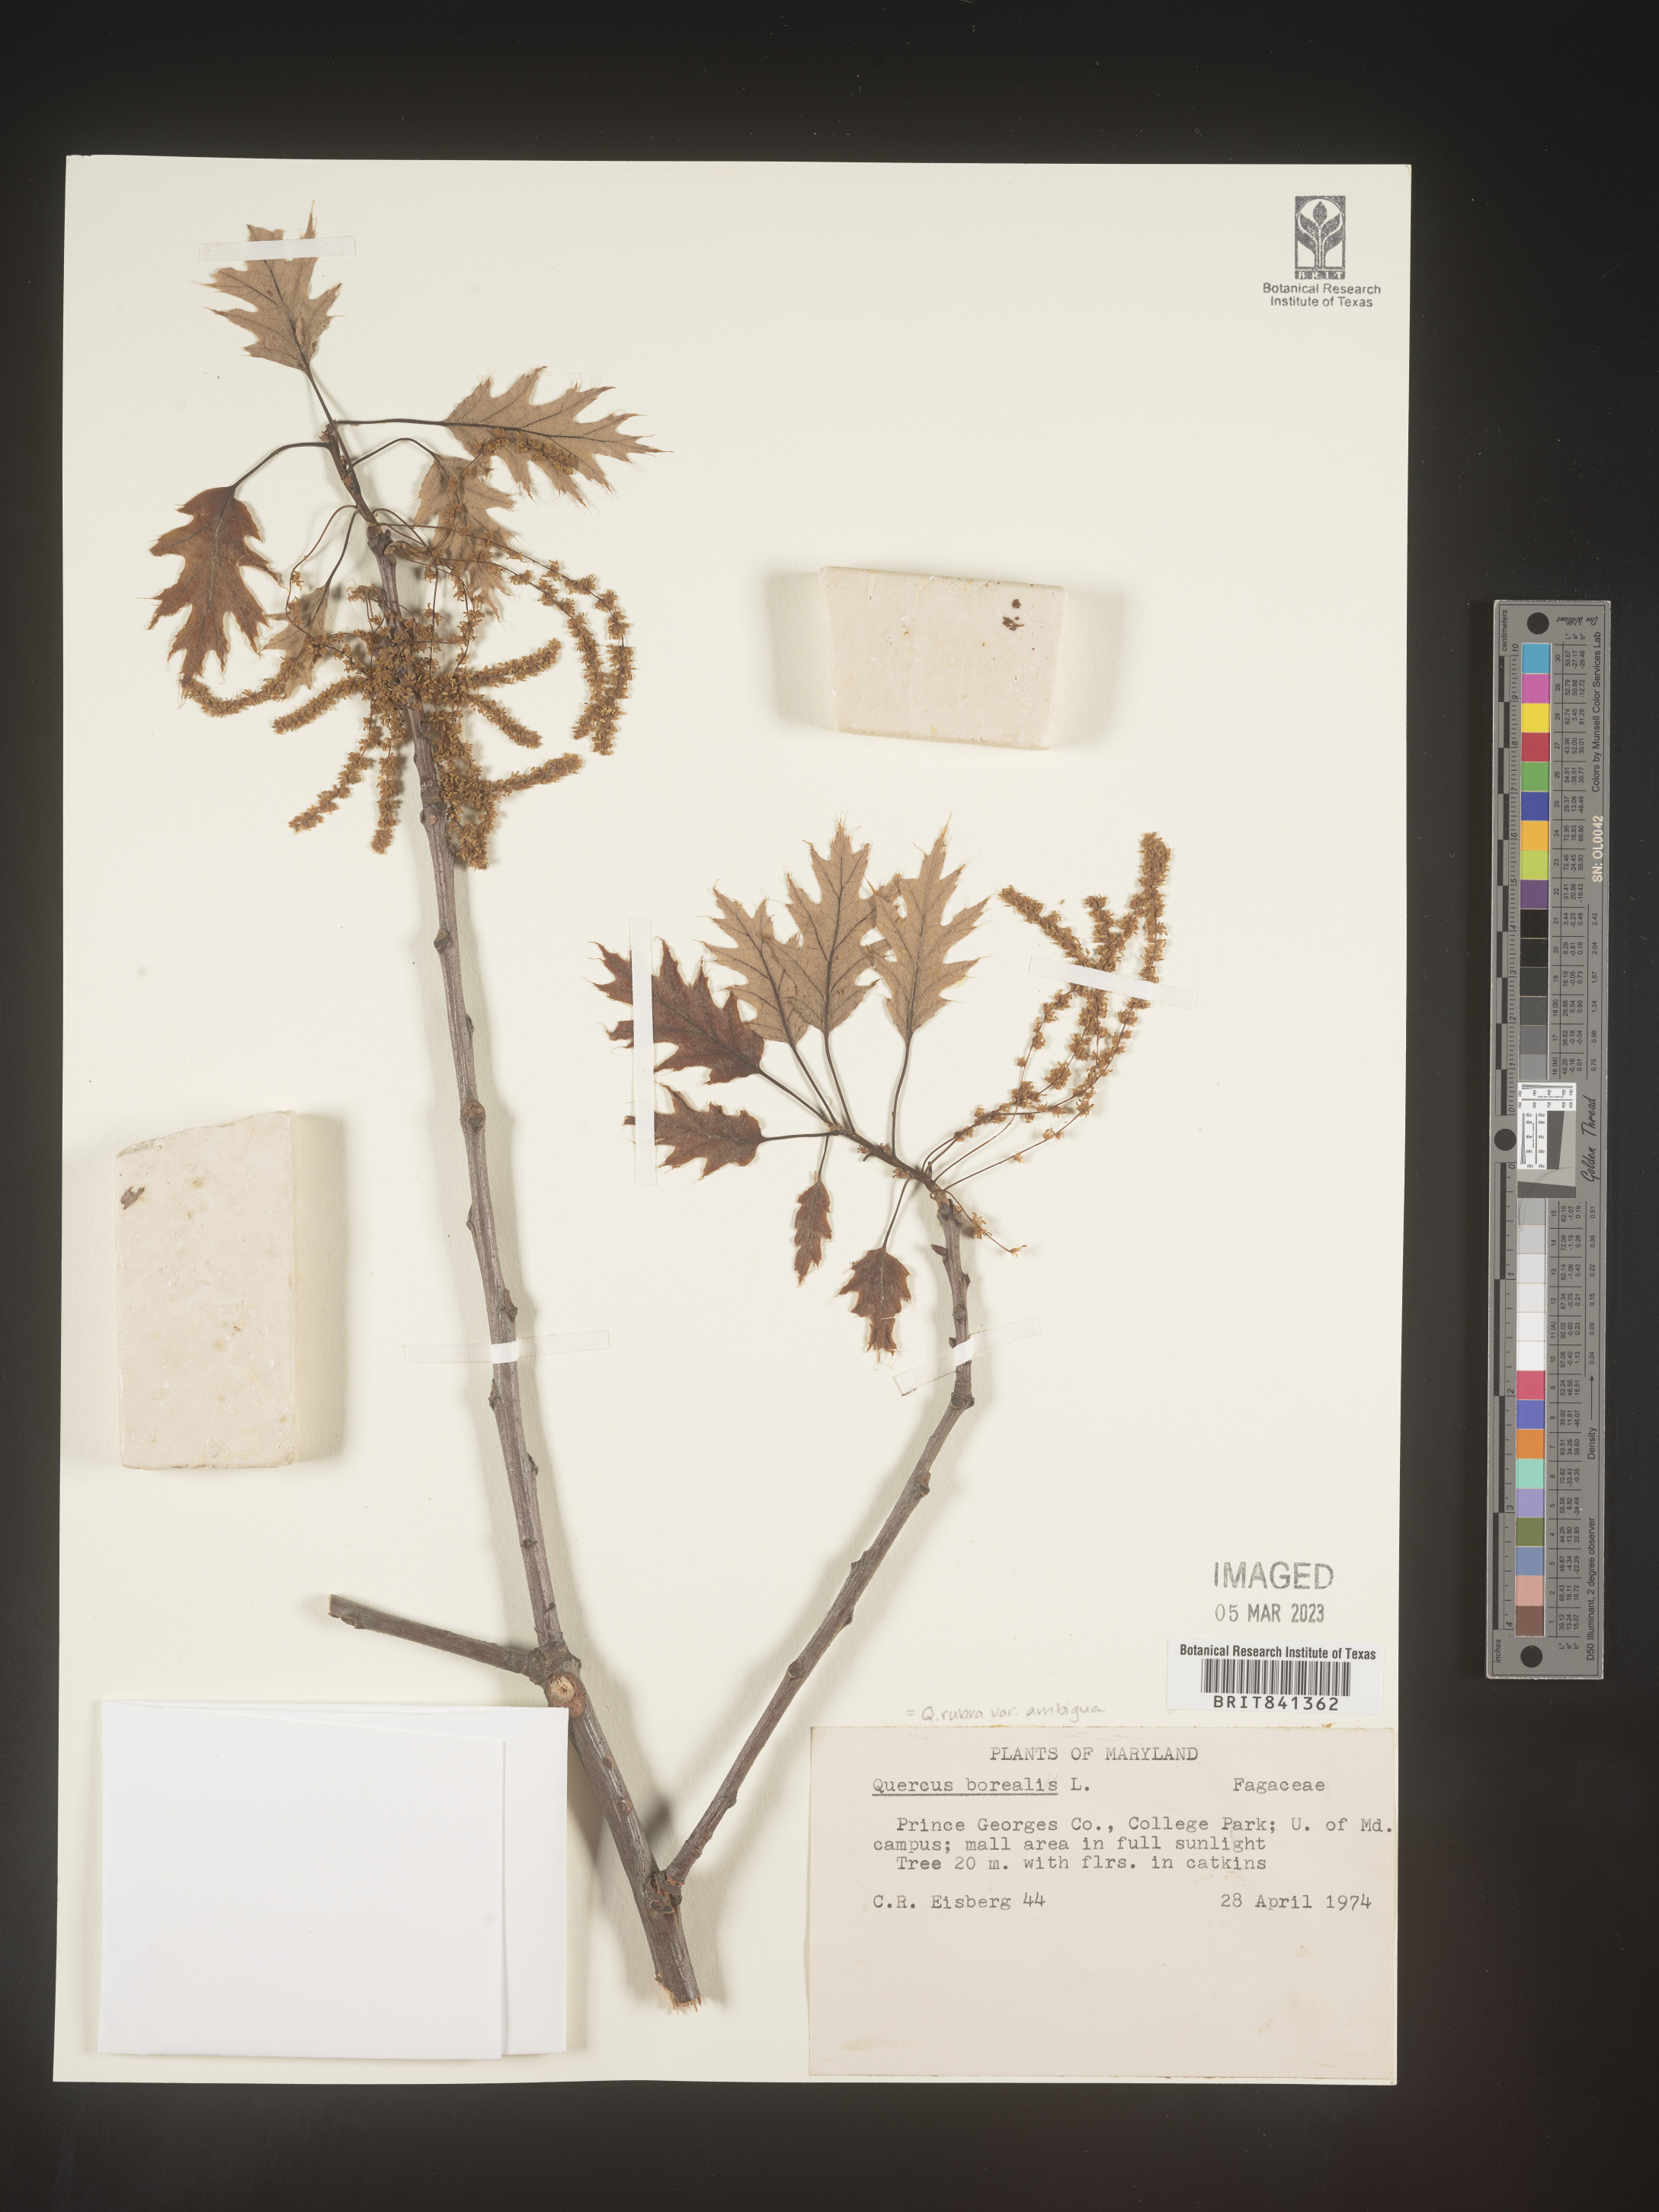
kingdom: Plantae
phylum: Tracheophyta
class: Magnoliopsida
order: Fagales
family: Fagaceae
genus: Quercus
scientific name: Quercus rubra
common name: Red oak
